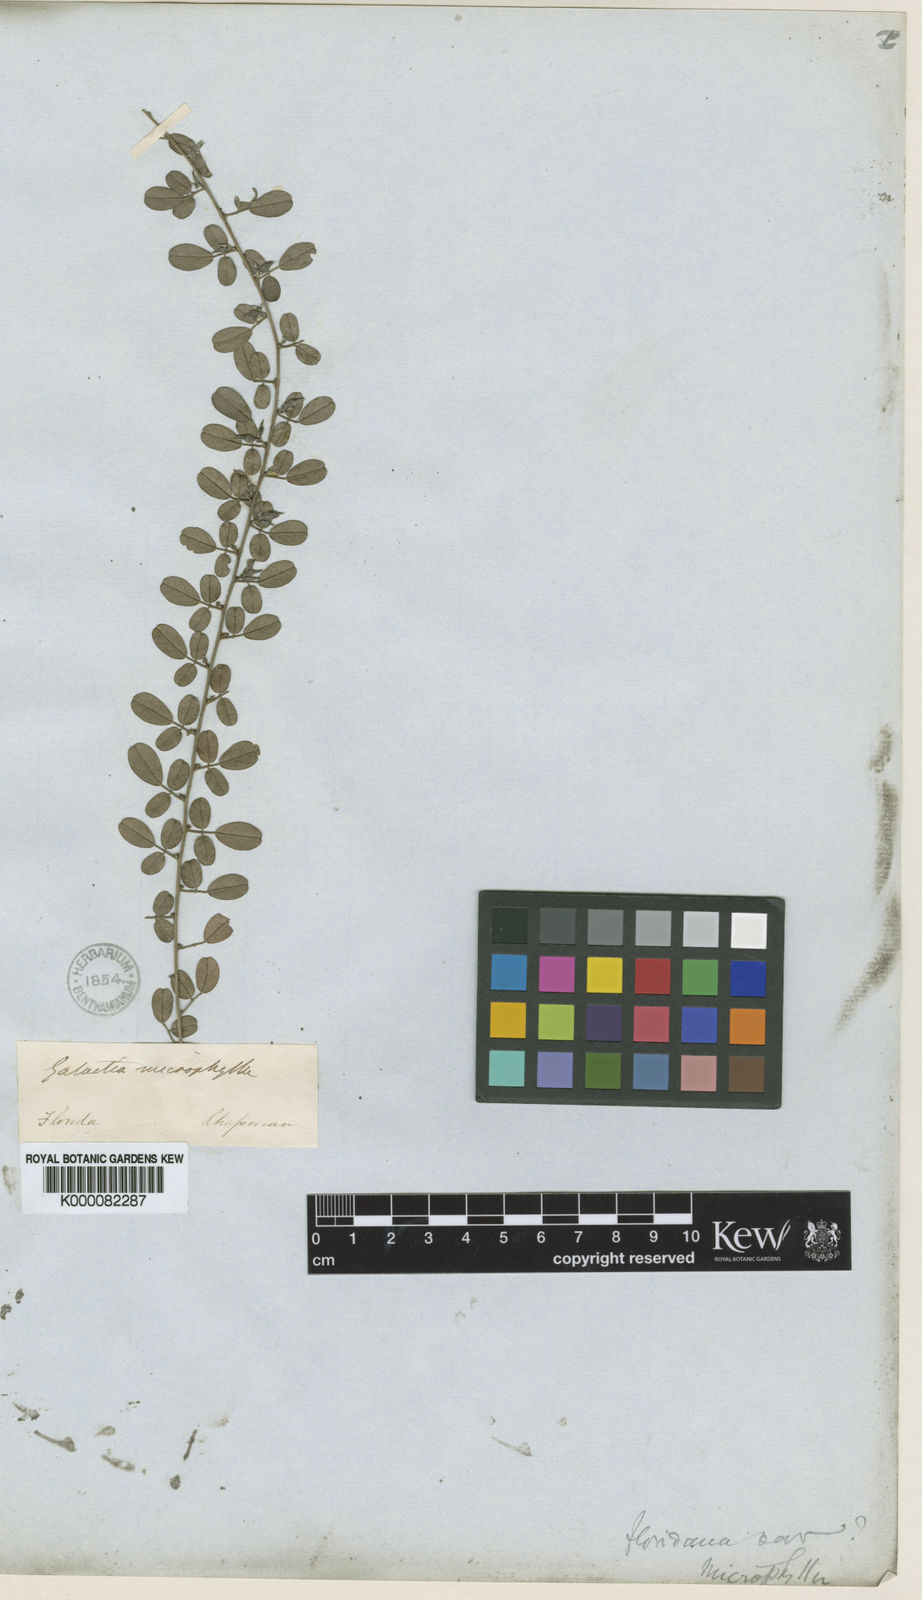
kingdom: Plantae
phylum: Tracheophyta
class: Magnoliopsida
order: Fabales
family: Fabaceae
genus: Galactia
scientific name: Galactia floridana
